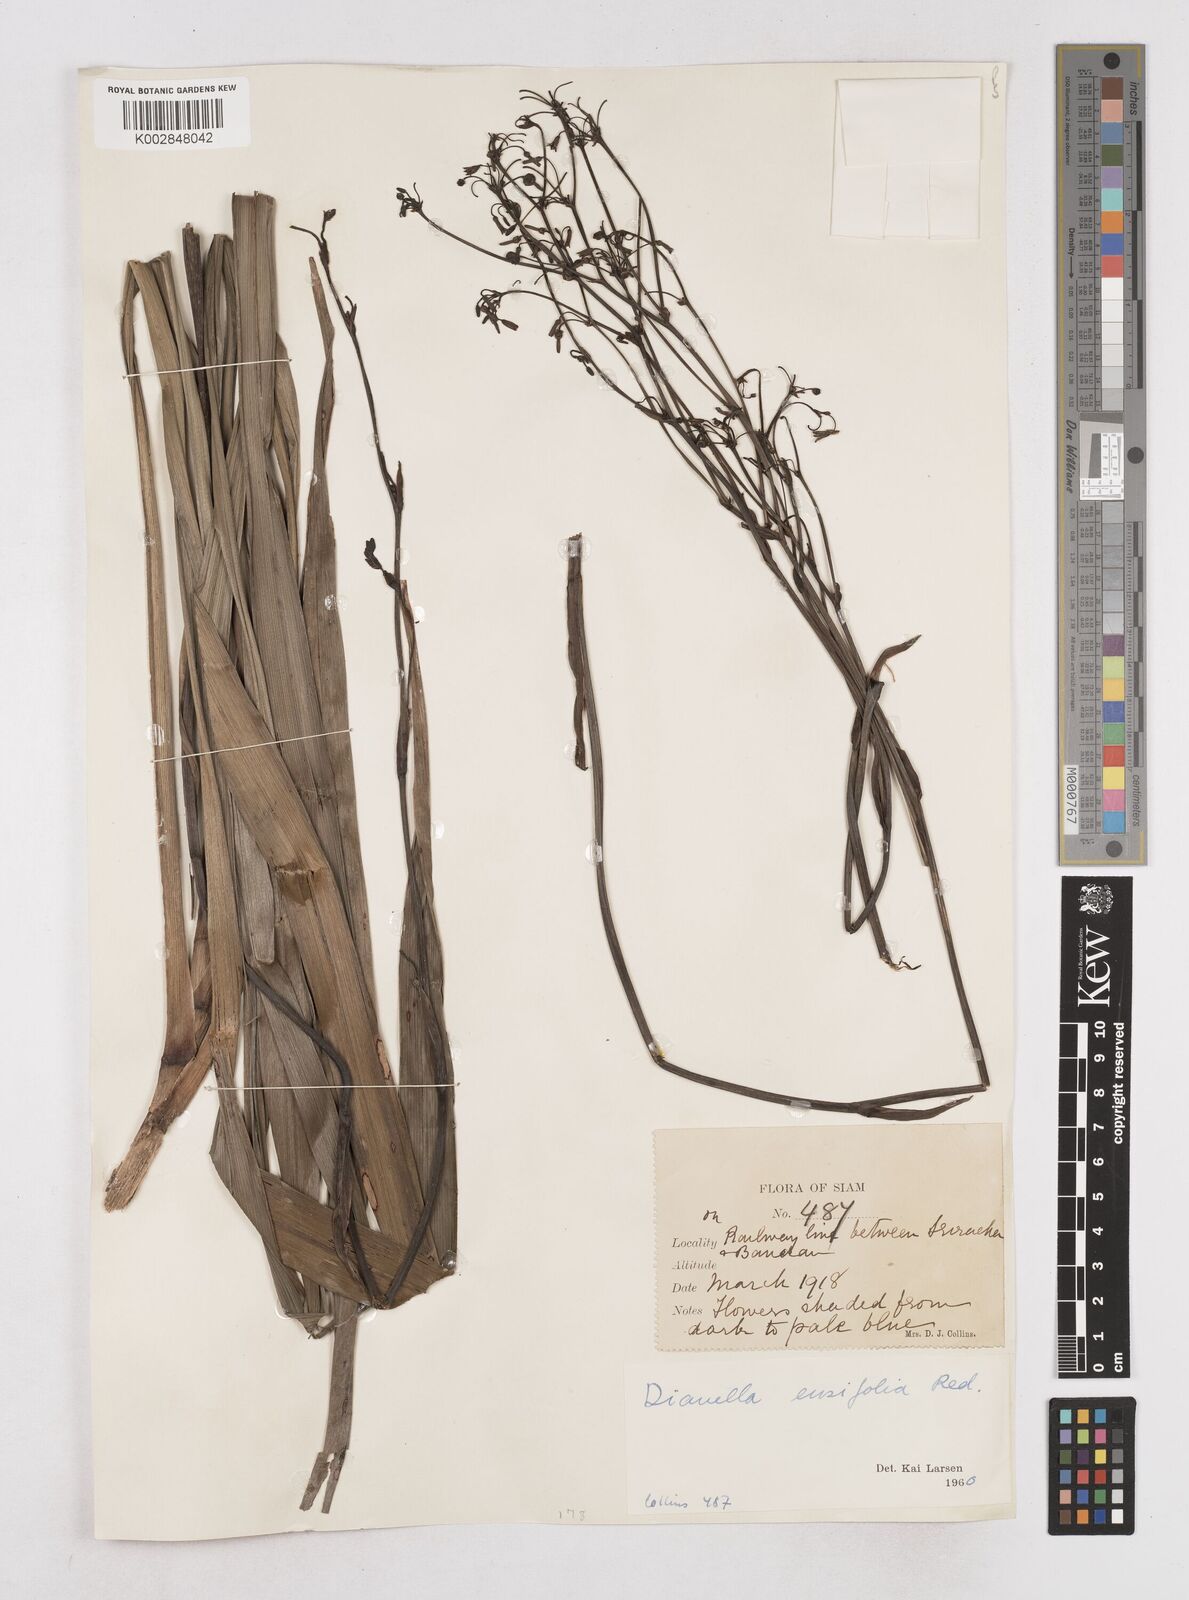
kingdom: Plantae
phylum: Tracheophyta
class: Liliopsida
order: Asparagales
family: Asphodelaceae
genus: Dianella
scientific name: Dianella ensifolia
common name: New zealand lilyplant
